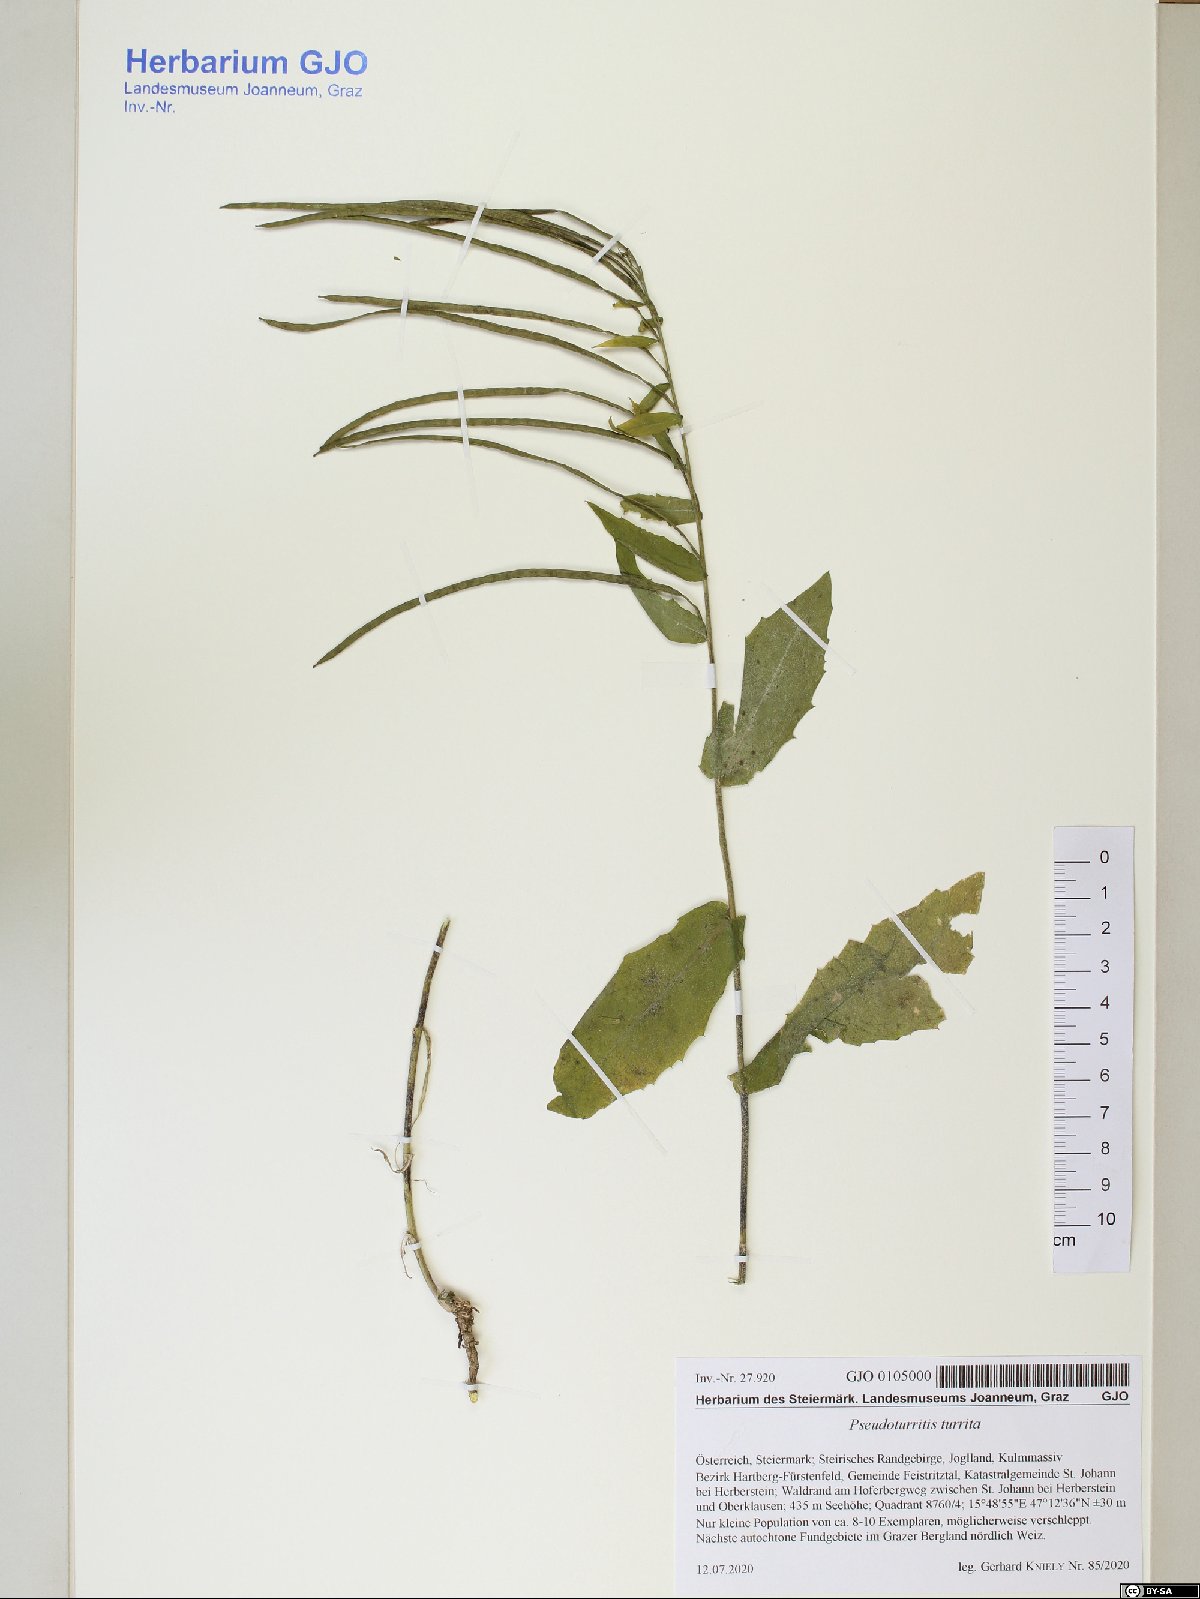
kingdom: Plantae
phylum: Tracheophyta
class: Magnoliopsida
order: Brassicales
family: Brassicaceae
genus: Pseudoturritis
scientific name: Pseudoturritis turrita
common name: Tower cress
